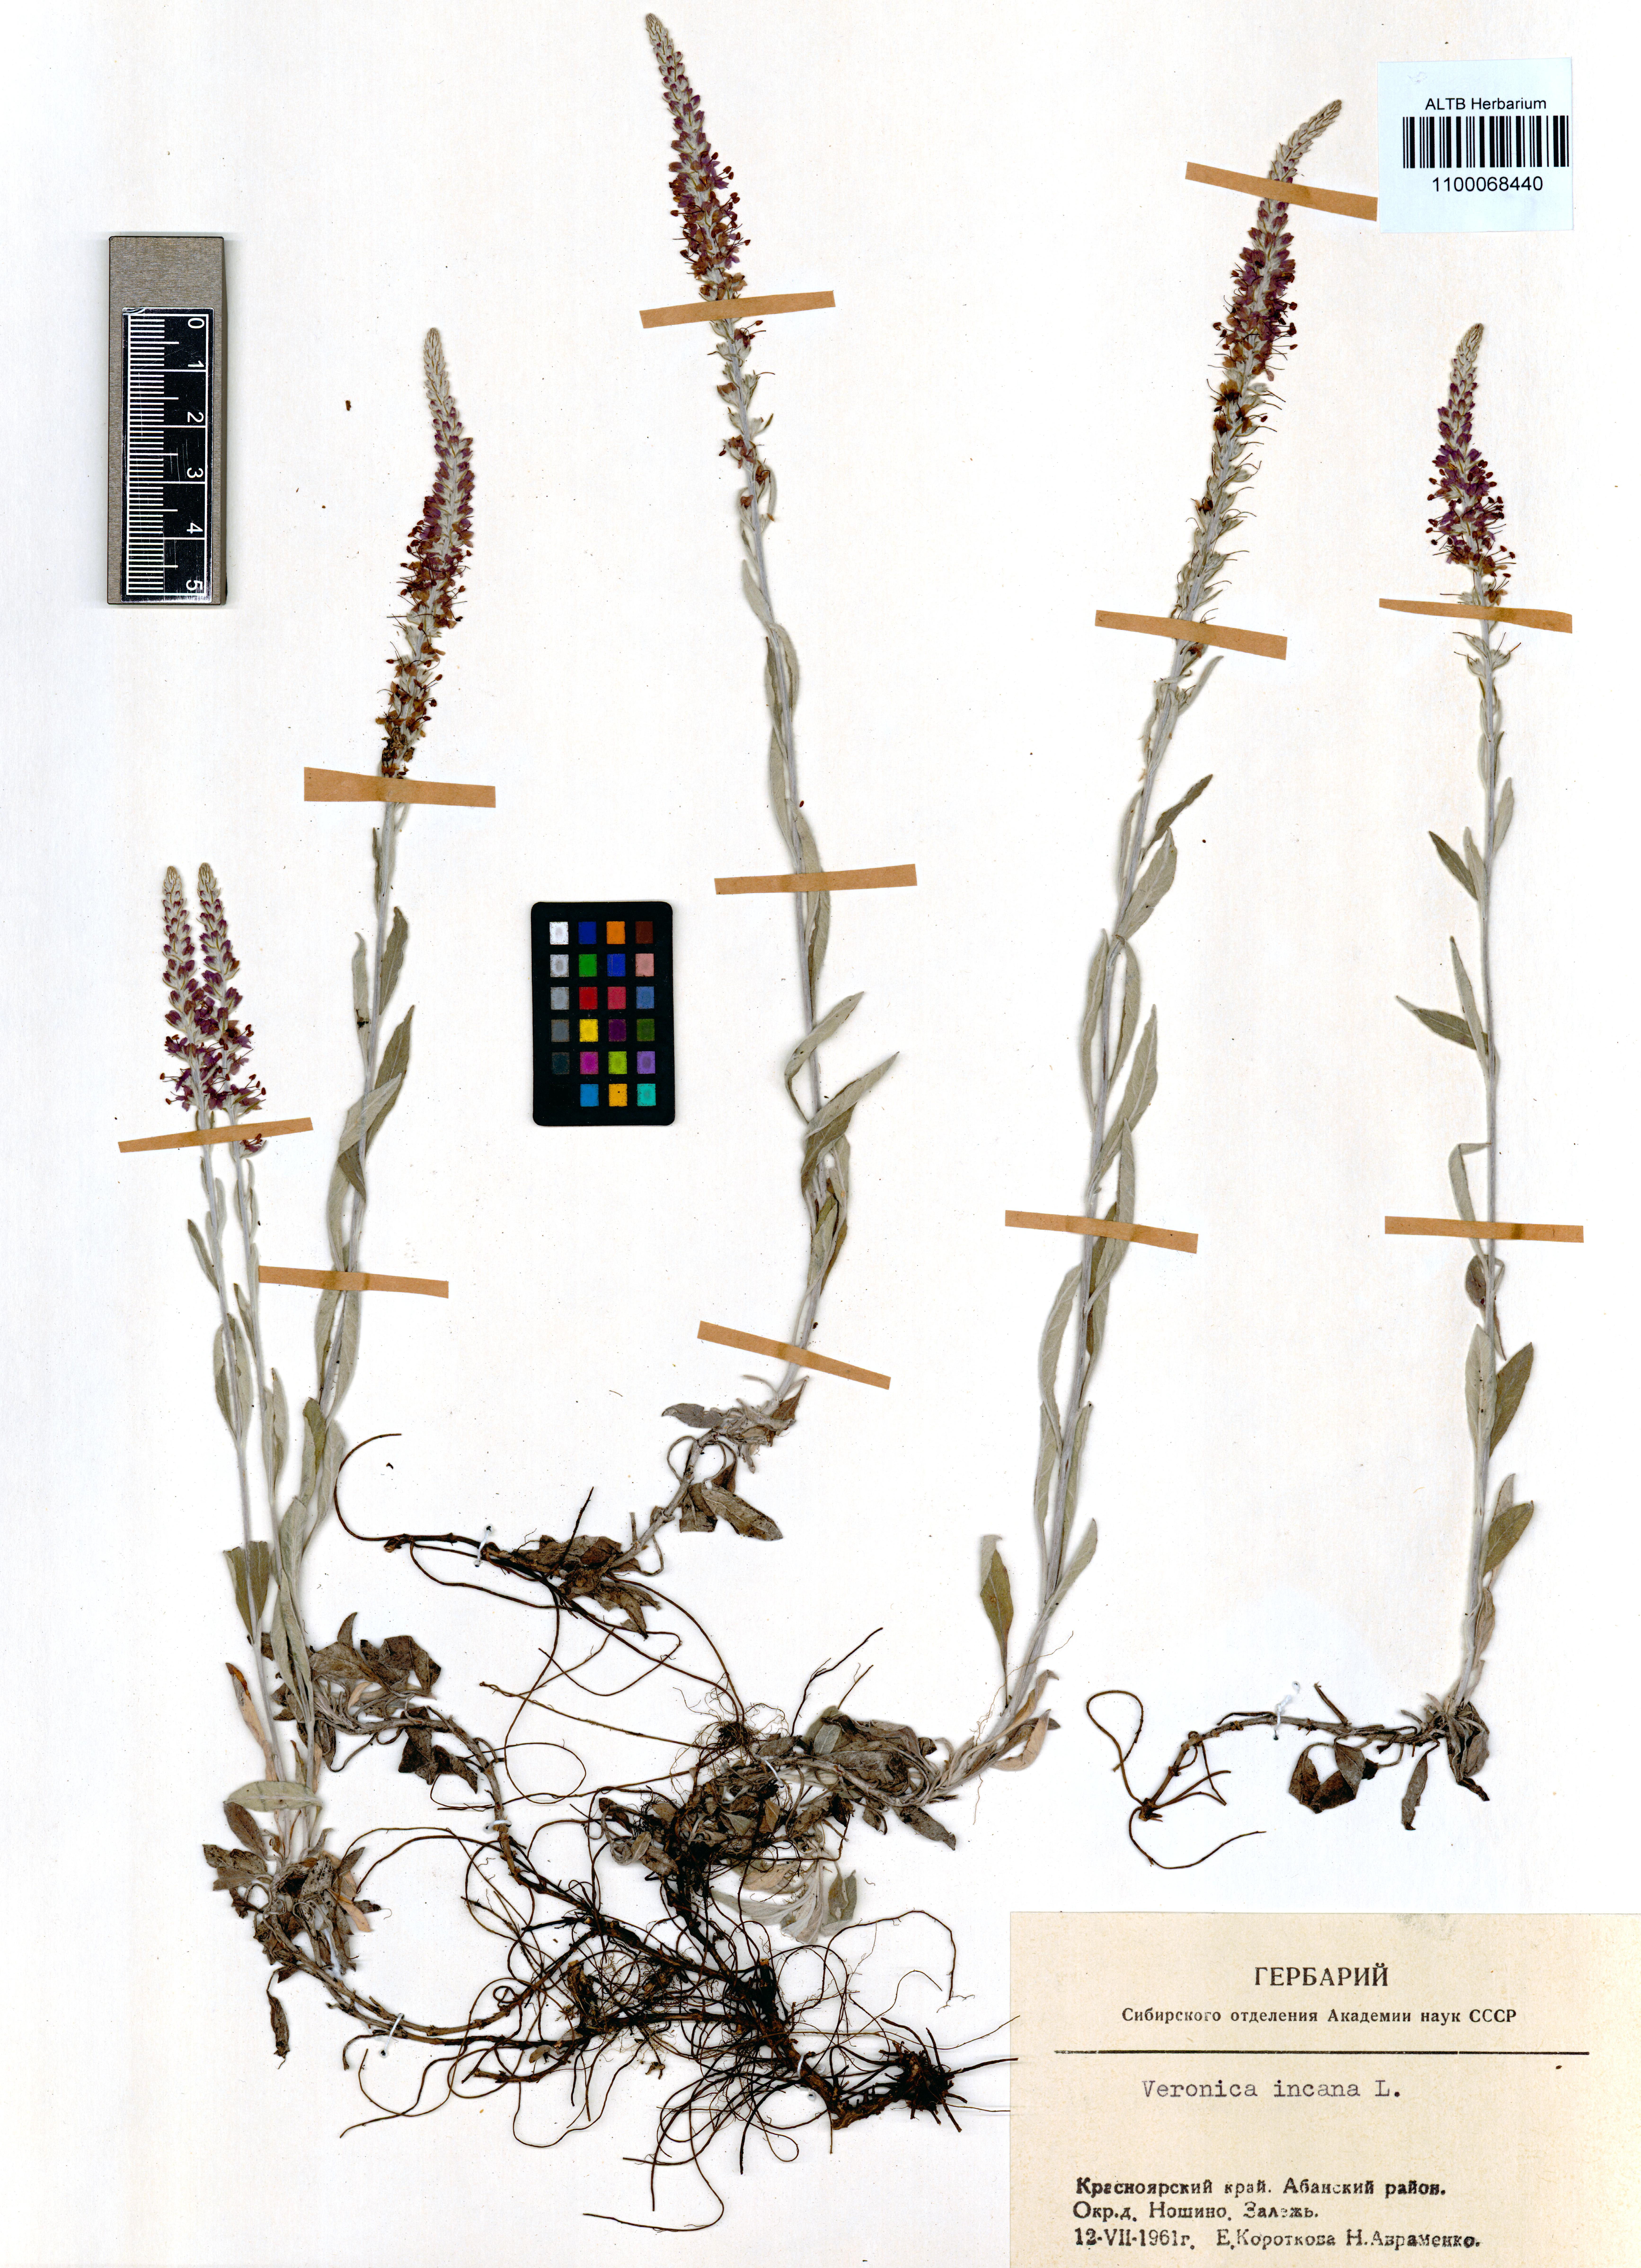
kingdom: Plantae
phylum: Tracheophyta
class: Magnoliopsida
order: Lamiales
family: Plantaginaceae
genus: Veronica
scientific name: Veronica incana
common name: Silver speedwell
